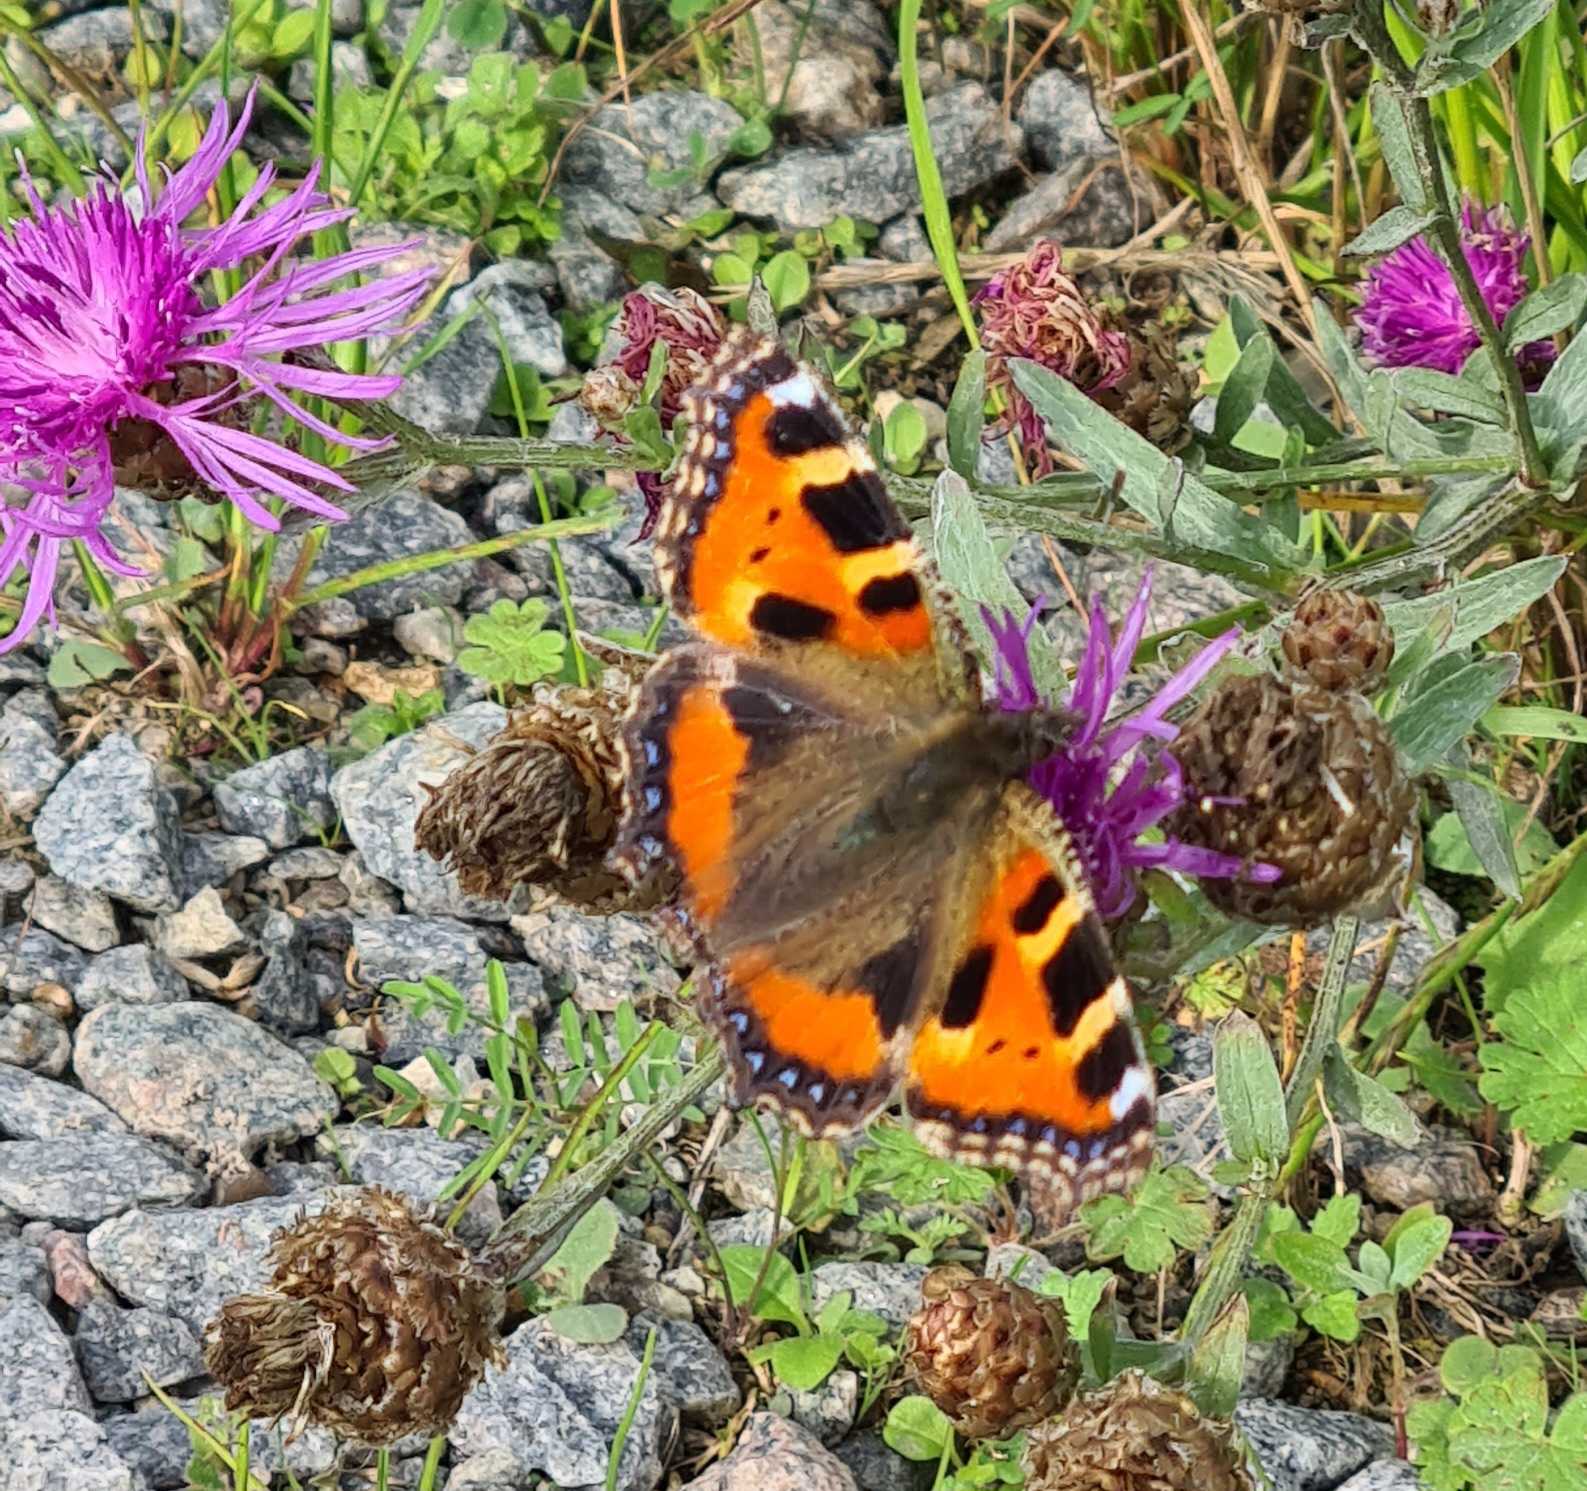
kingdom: Animalia
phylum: Arthropoda
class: Insecta
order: Lepidoptera
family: Nymphalidae
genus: Aglais
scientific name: Aglais urticae
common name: Nældens takvinge
